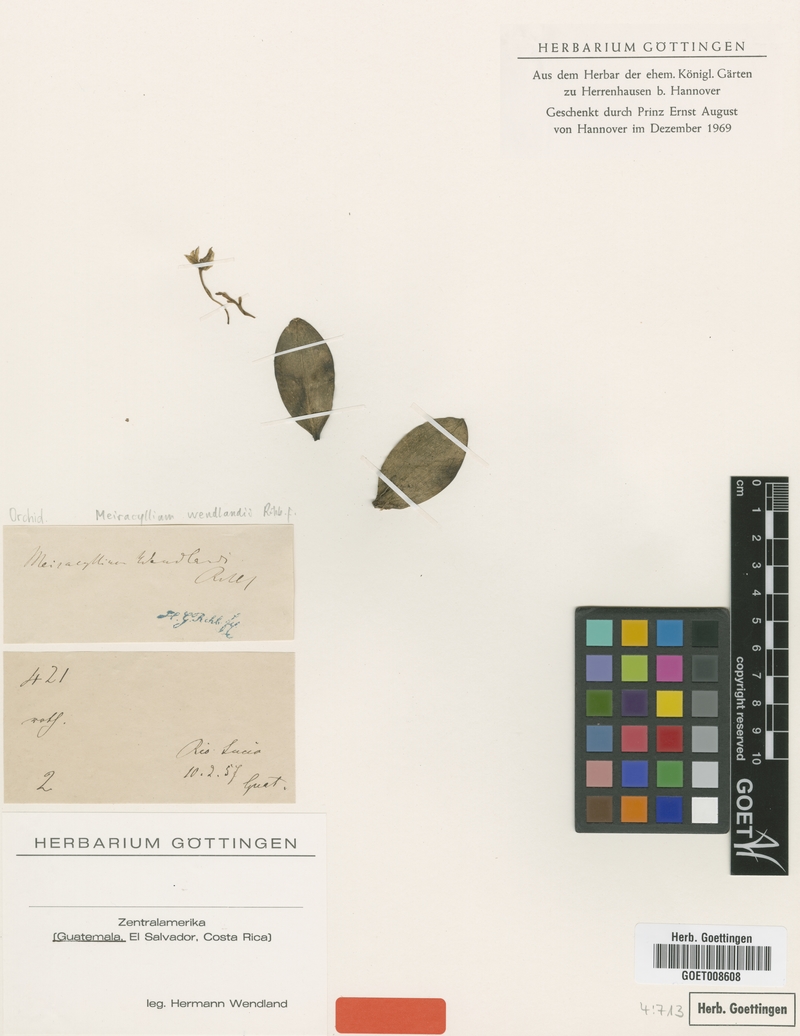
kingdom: Plantae
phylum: Tracheophyta
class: Liliopsida
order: Asparagales
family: Orchidaceae
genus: Meiracyllium
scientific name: Meiracyllium trinasutum
